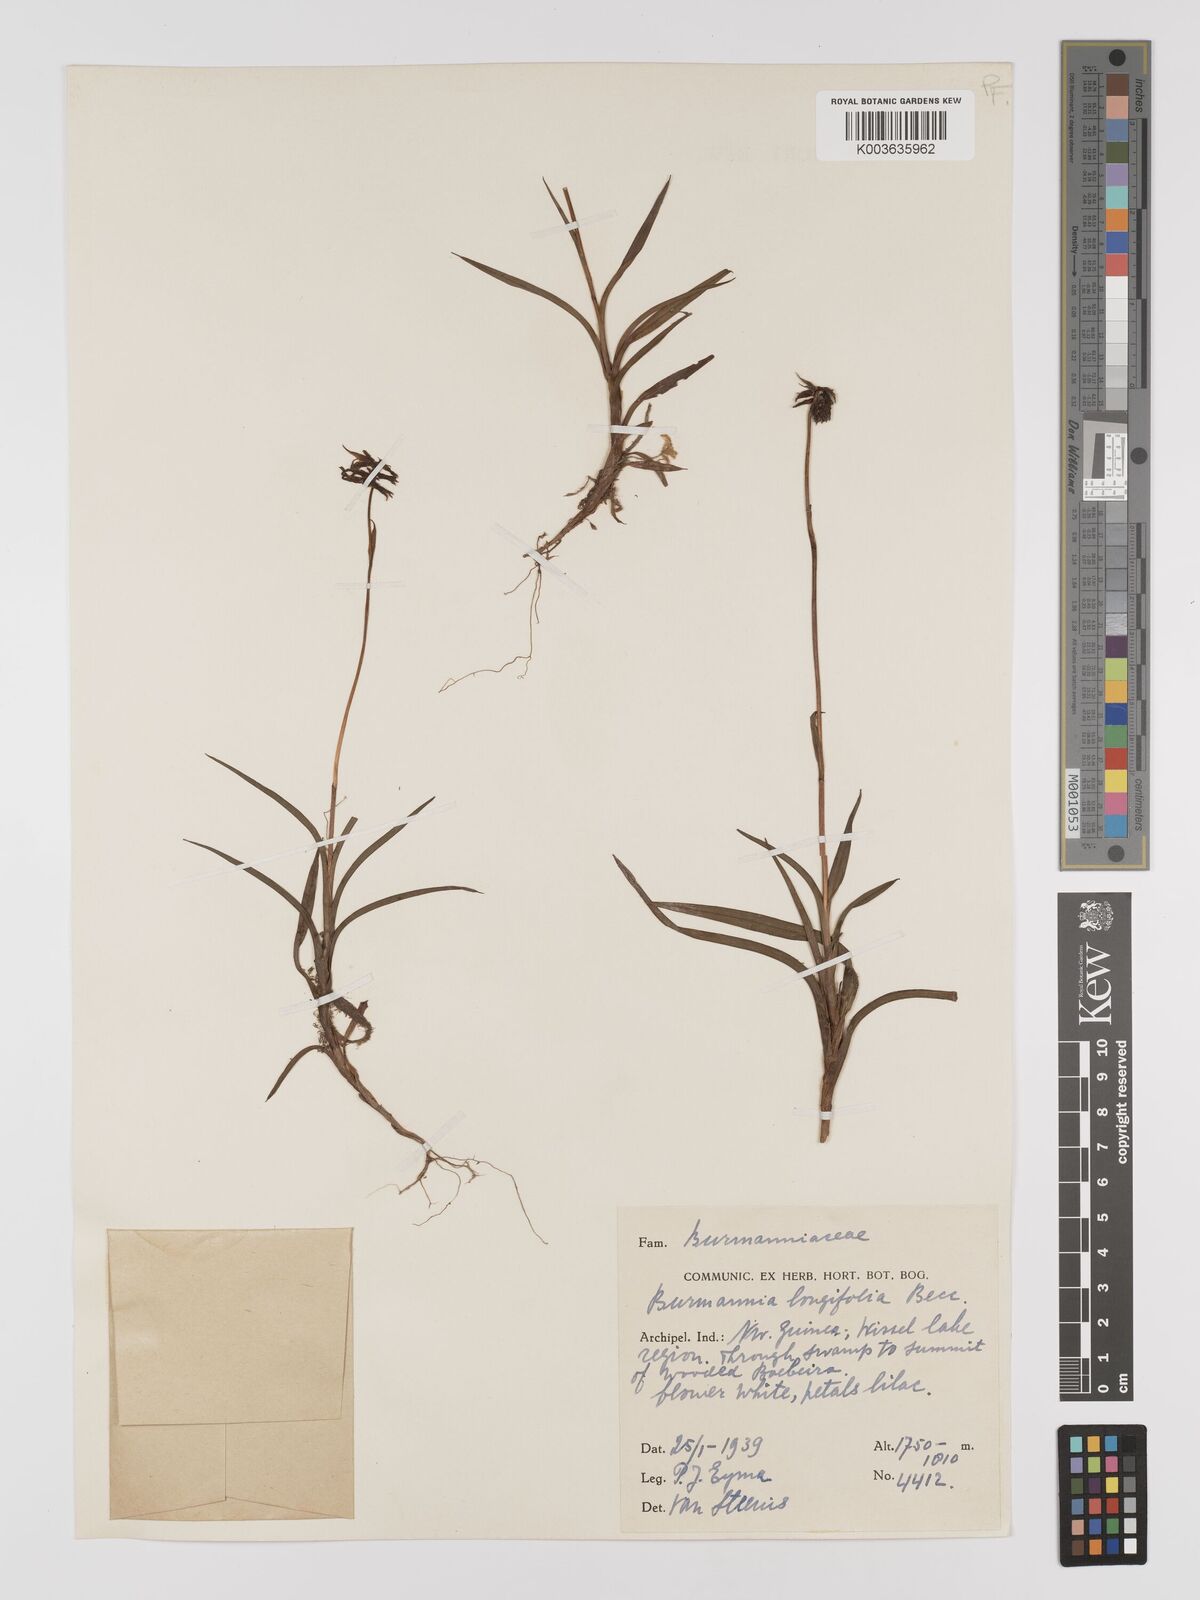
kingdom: Plantae
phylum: Tracheophyta
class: Liliopsida
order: Dioscoreales
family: Burmanniaceae
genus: Burmannia
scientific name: Burmannia longifolia
